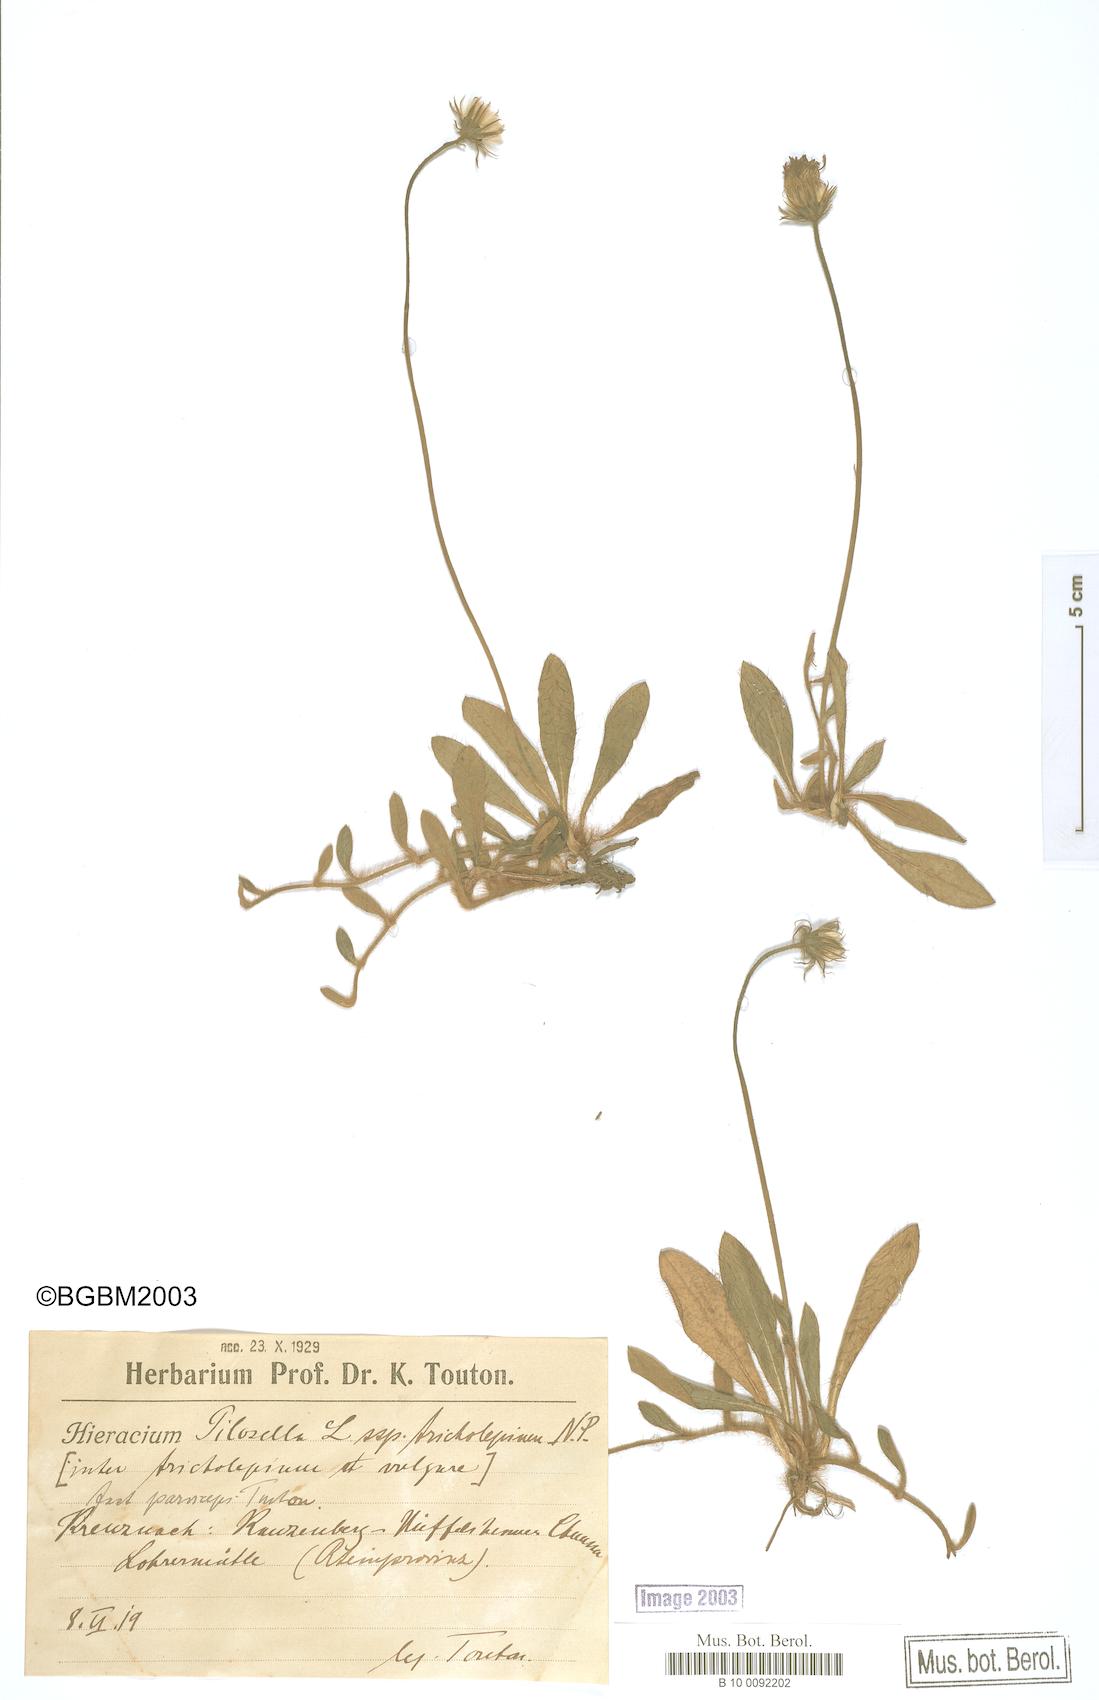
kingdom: Plantae
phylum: Tracheophyta
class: Magnoliopsida
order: Asterales
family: Asteraceae
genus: Pilosella
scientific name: Pilosella officinarum
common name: Mouse-ear hawkweed
